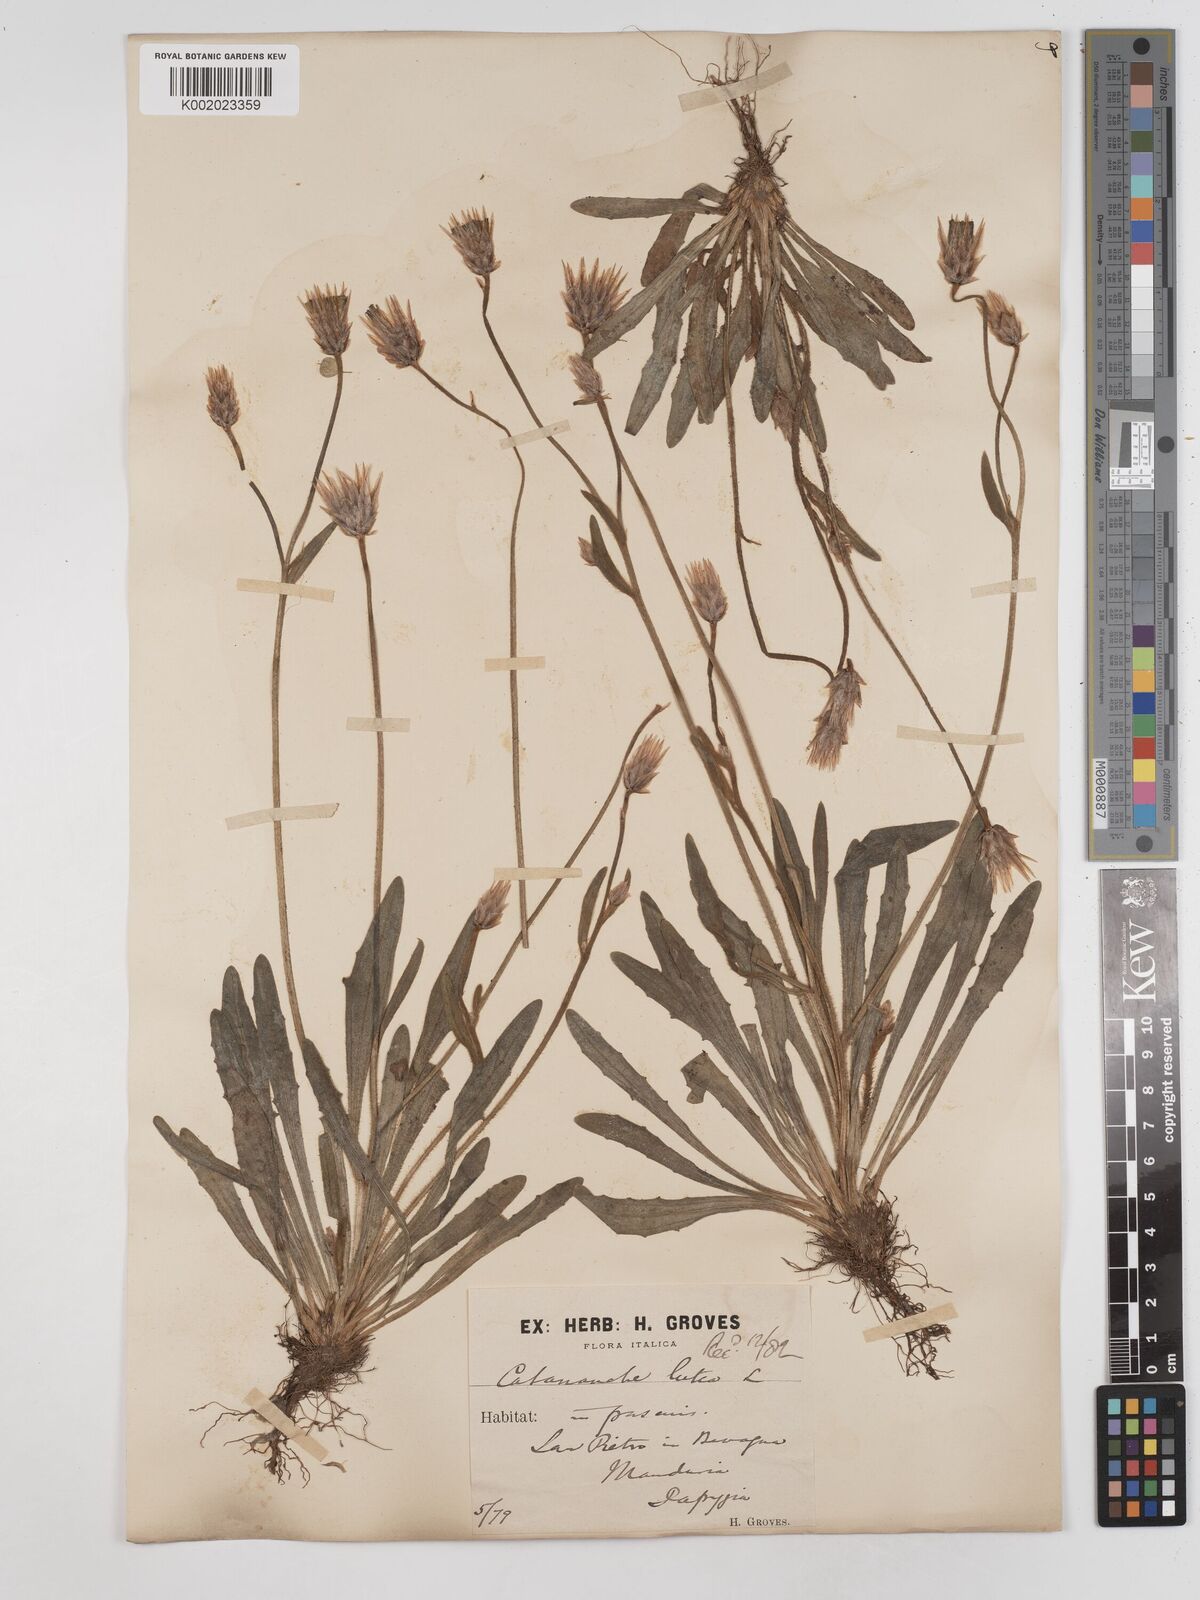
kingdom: Plantae
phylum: Tracheophyta
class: Magnoliopsida
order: Asterales
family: Asteraceae
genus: Catananche
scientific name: Catananche lutea
